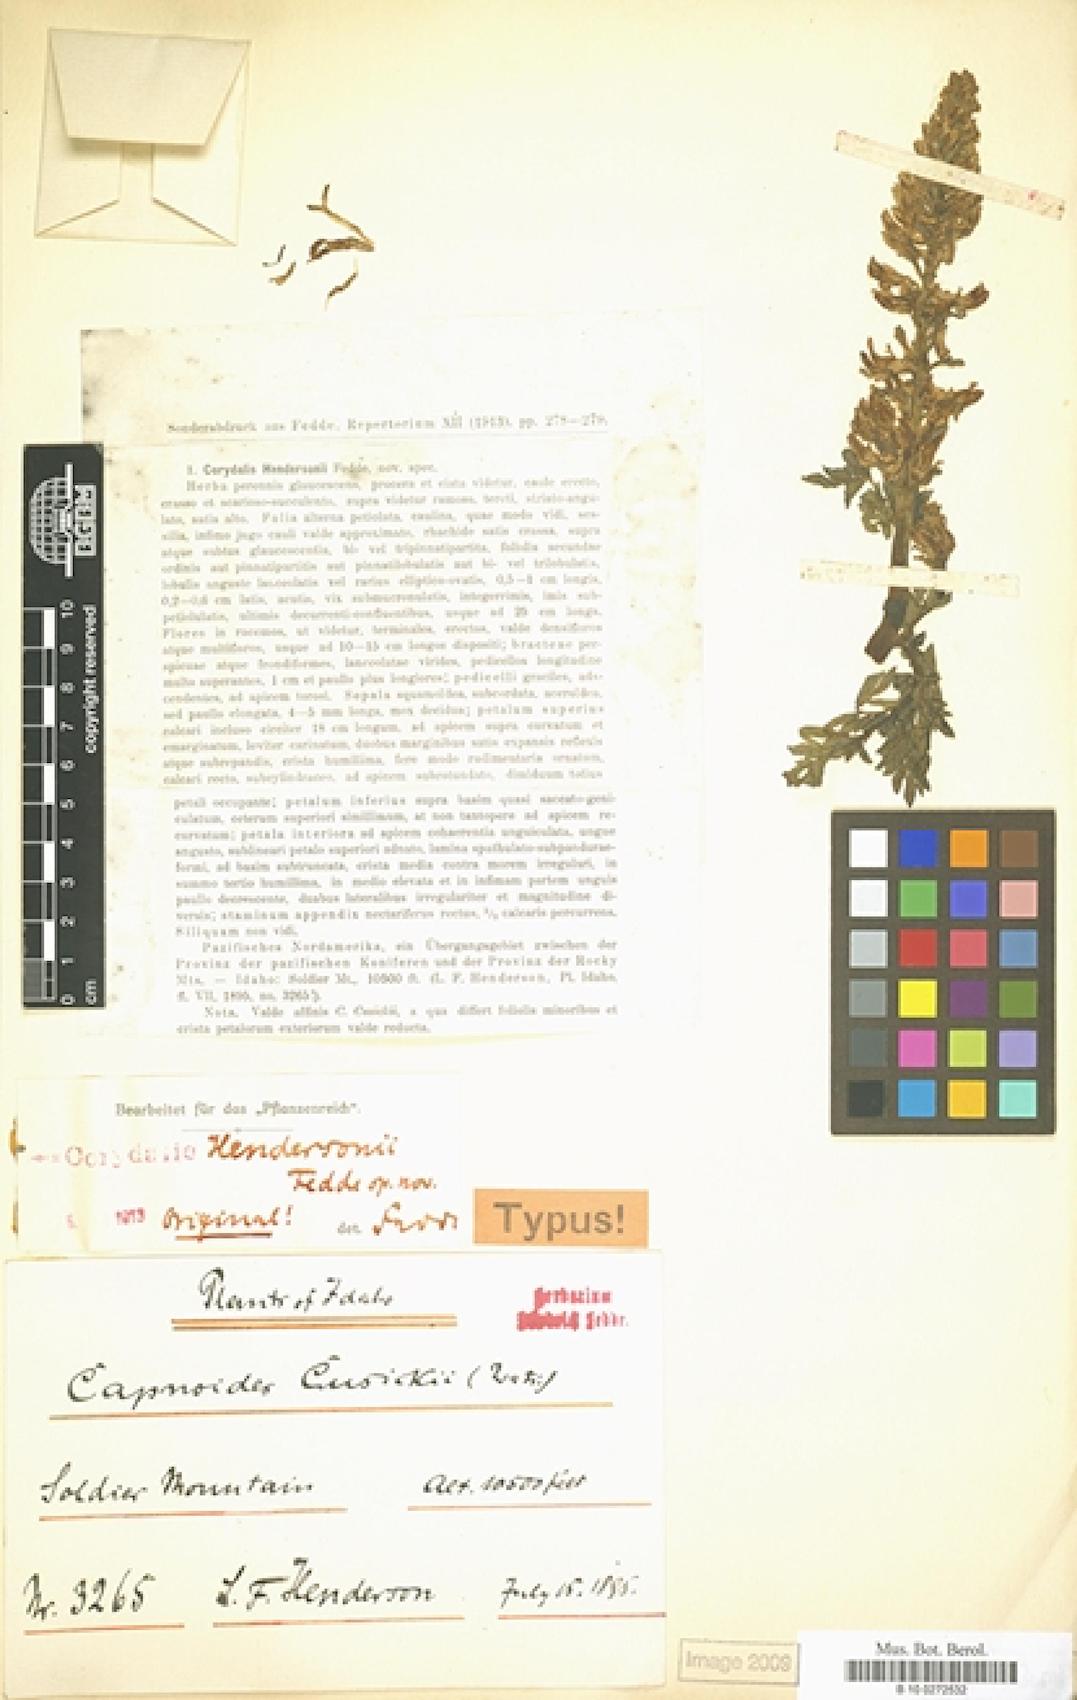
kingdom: Plantae
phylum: Tracheophyta
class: Magnoliopsida
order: Ranunculales
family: Papaveraceae
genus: Corydalis
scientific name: Corydalis hendersonii
